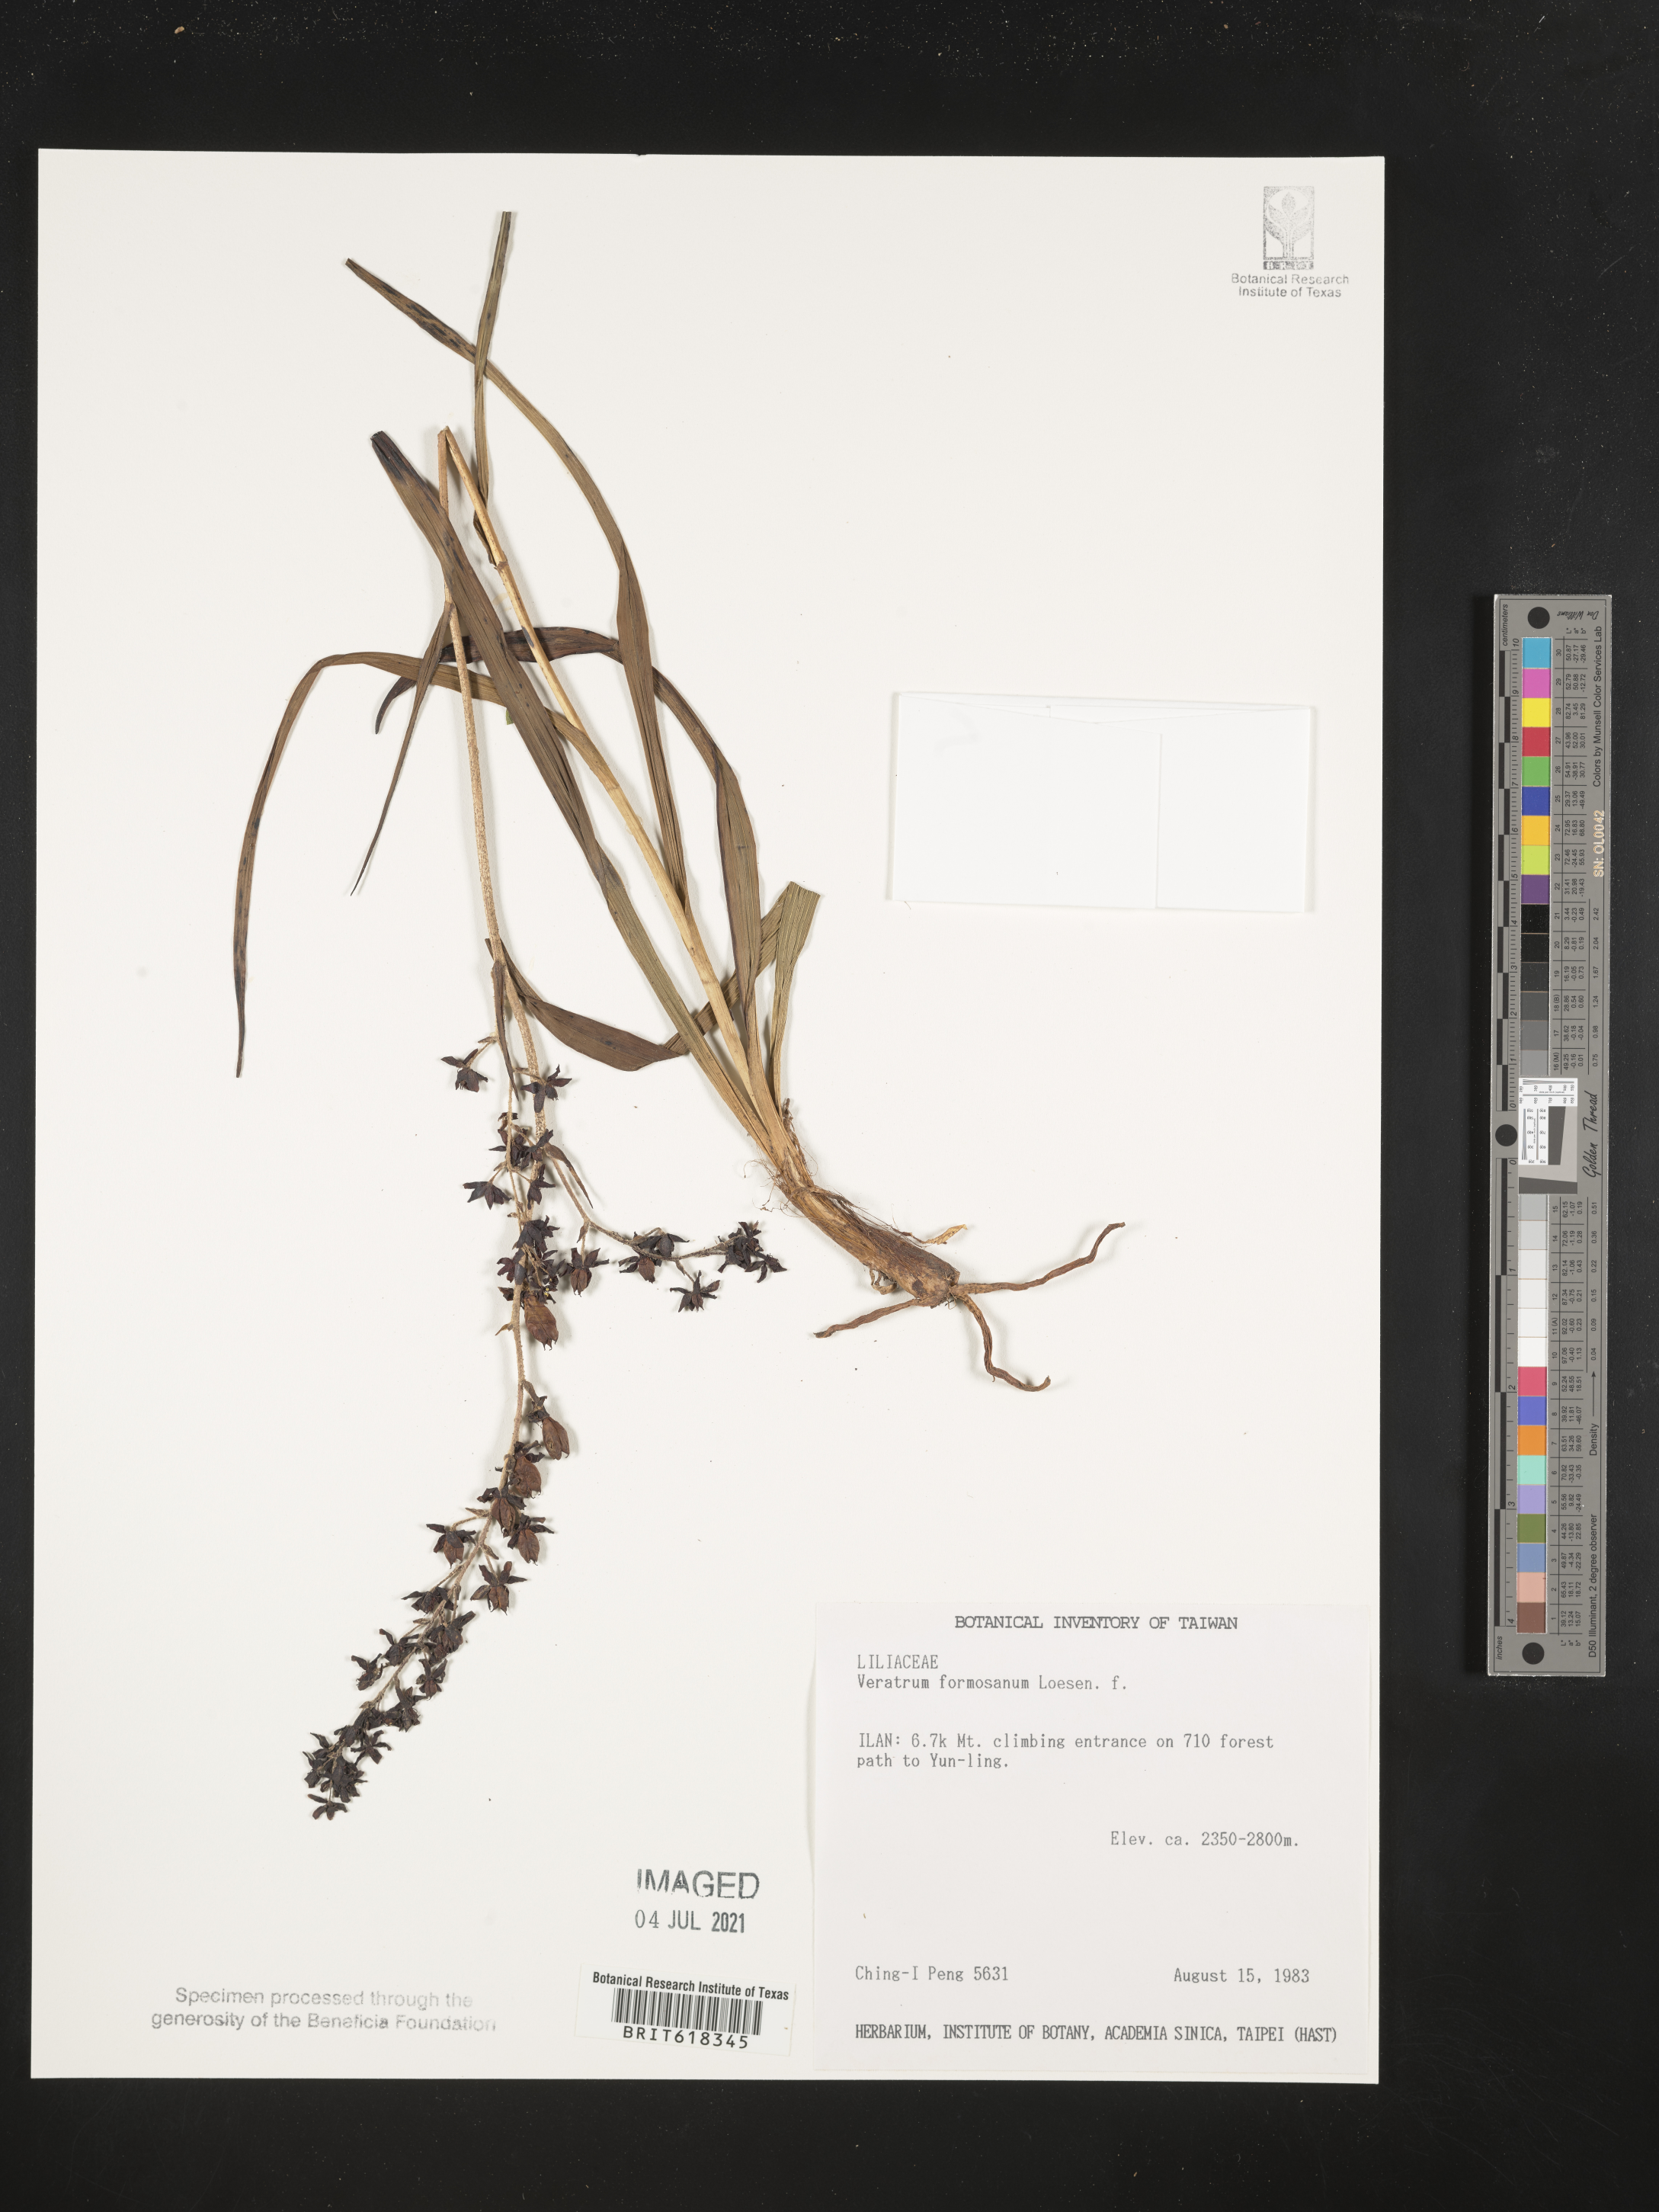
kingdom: Plantae
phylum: Tracheophyta
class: Liliopsida
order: Liliales
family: Melanthiaceae
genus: Veratrum
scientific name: Veratrum formosanum
